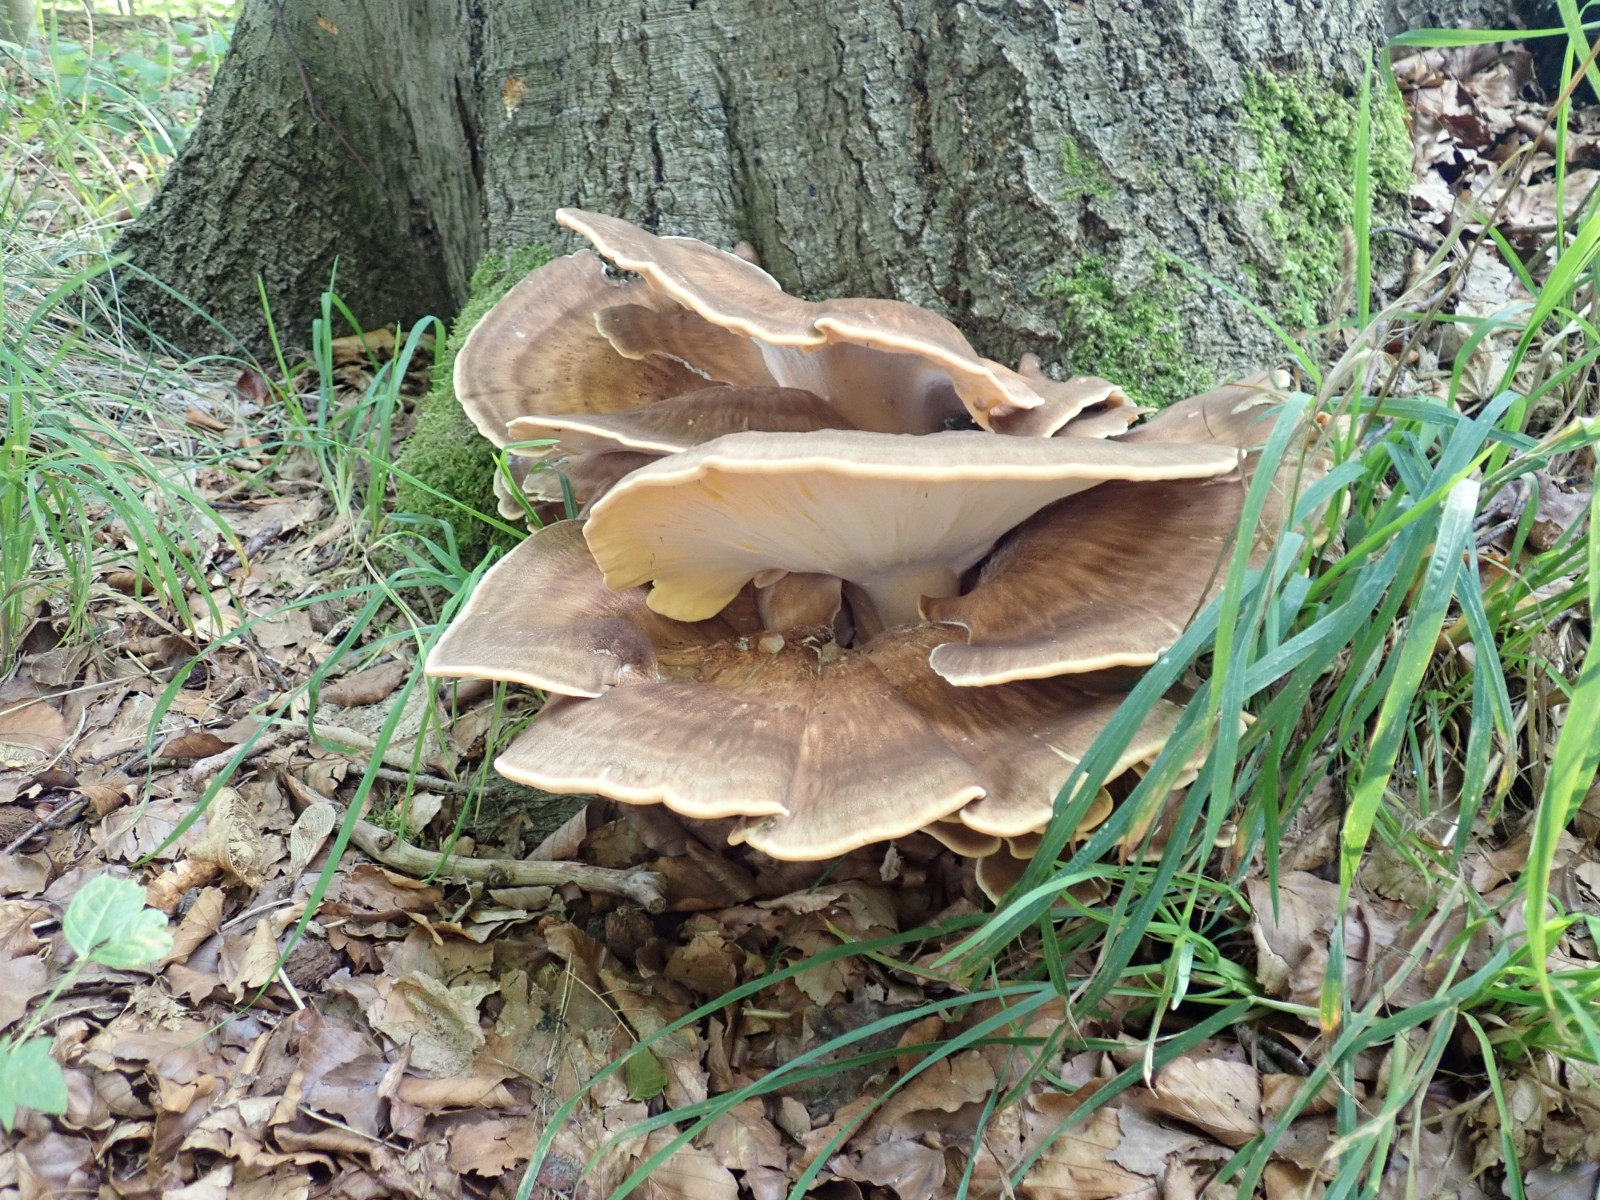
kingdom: Fungi
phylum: Basidiomycota
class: Agaricomycetes
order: Polyporales
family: Meripilaceae
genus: Meripilus
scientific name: Meripilus giganteus
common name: kæmpeporesvamp
